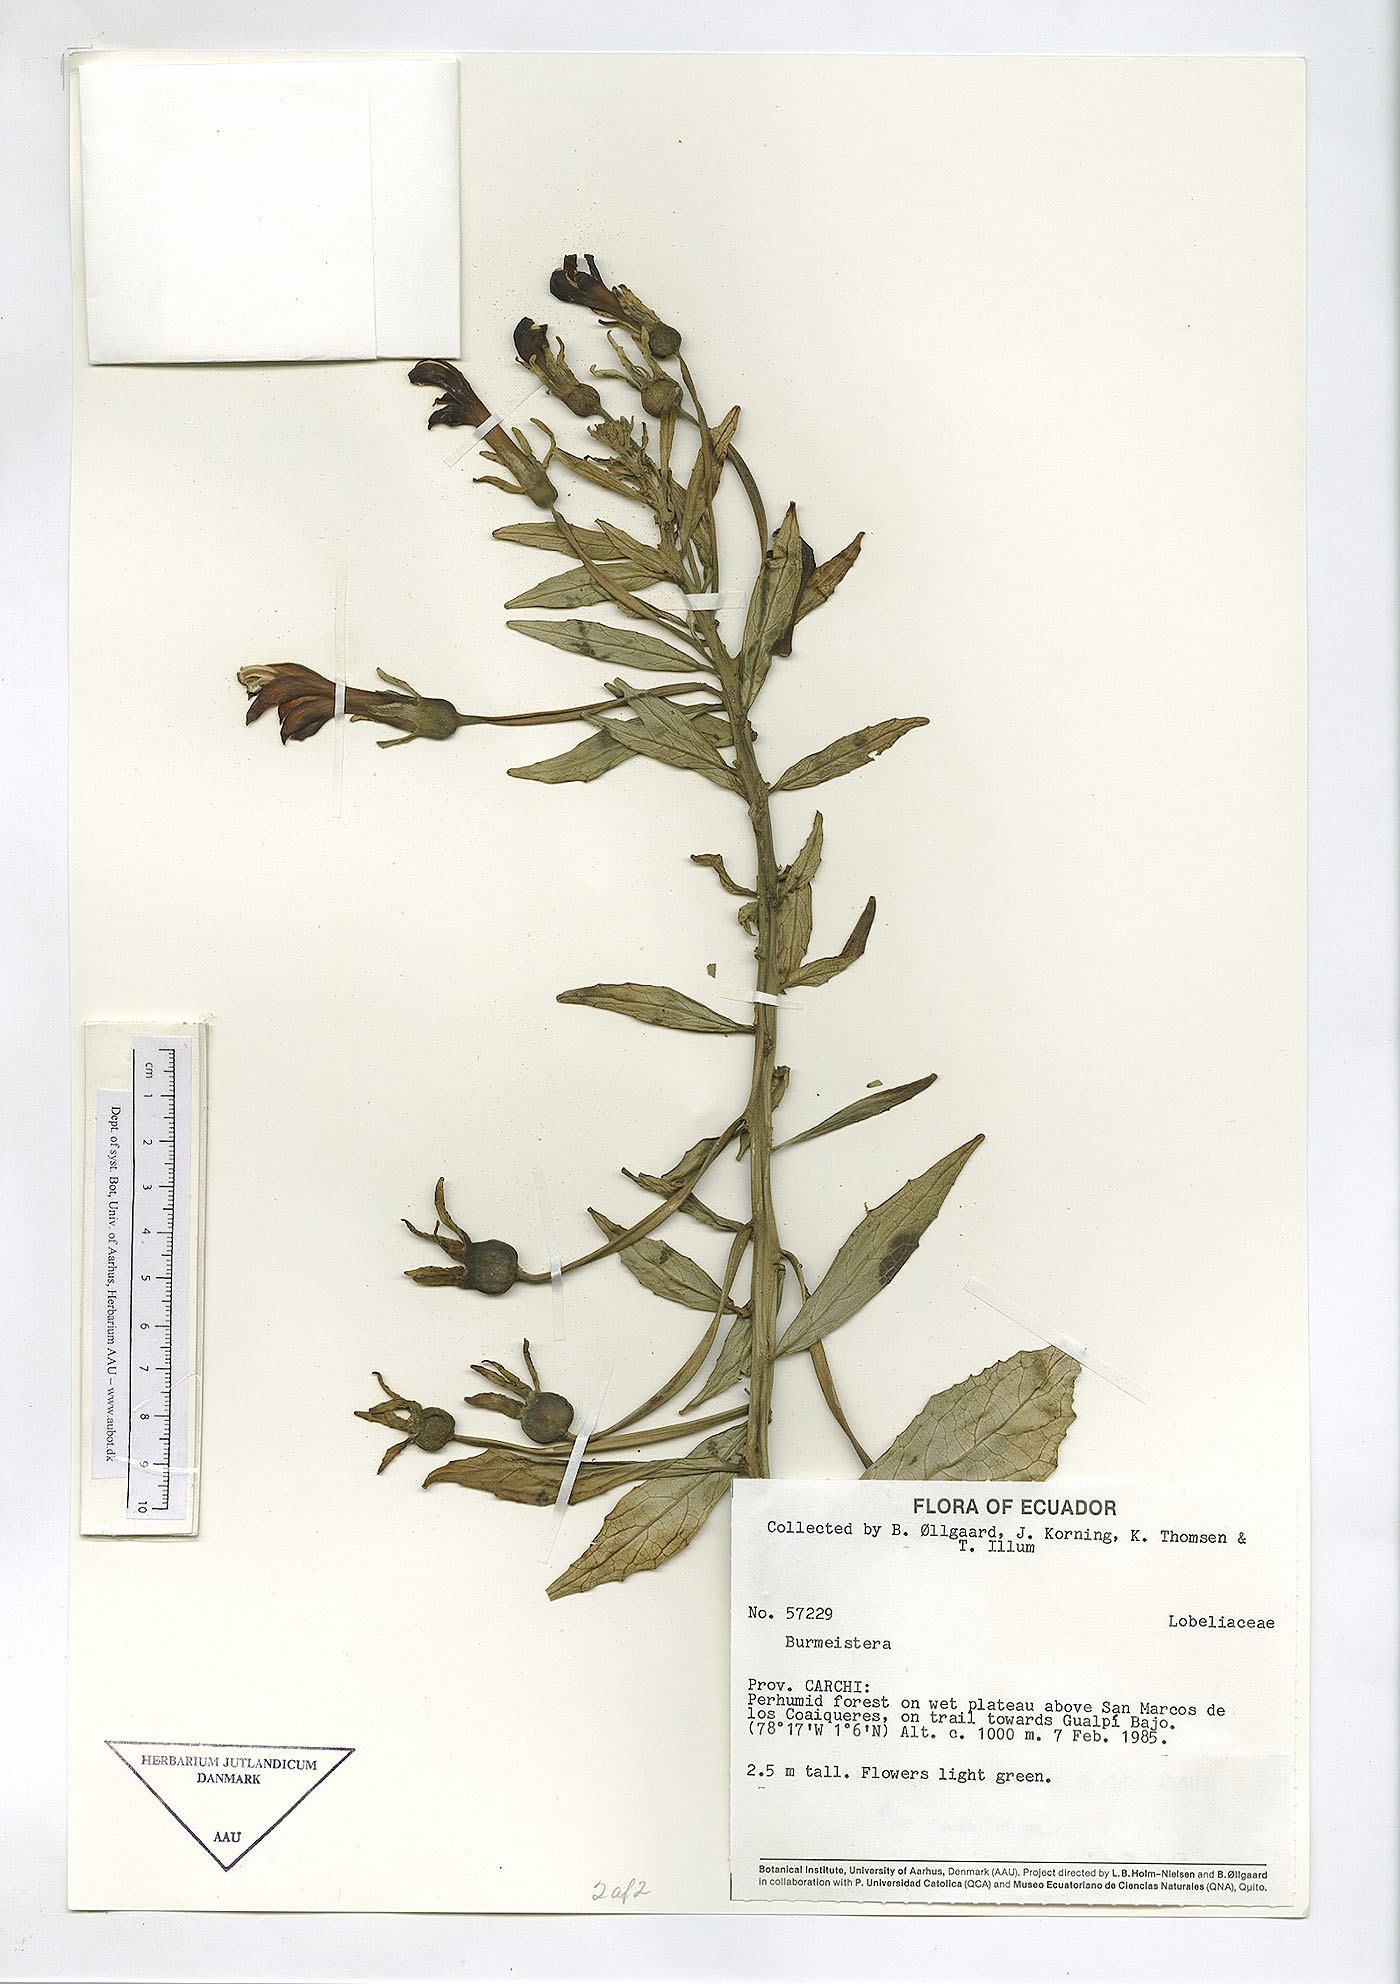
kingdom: Plantae
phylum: Tracheophyta
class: Magnoliopsida
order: Asterales
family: Campanulaceae
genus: Burmeistera
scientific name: Burmeistera
